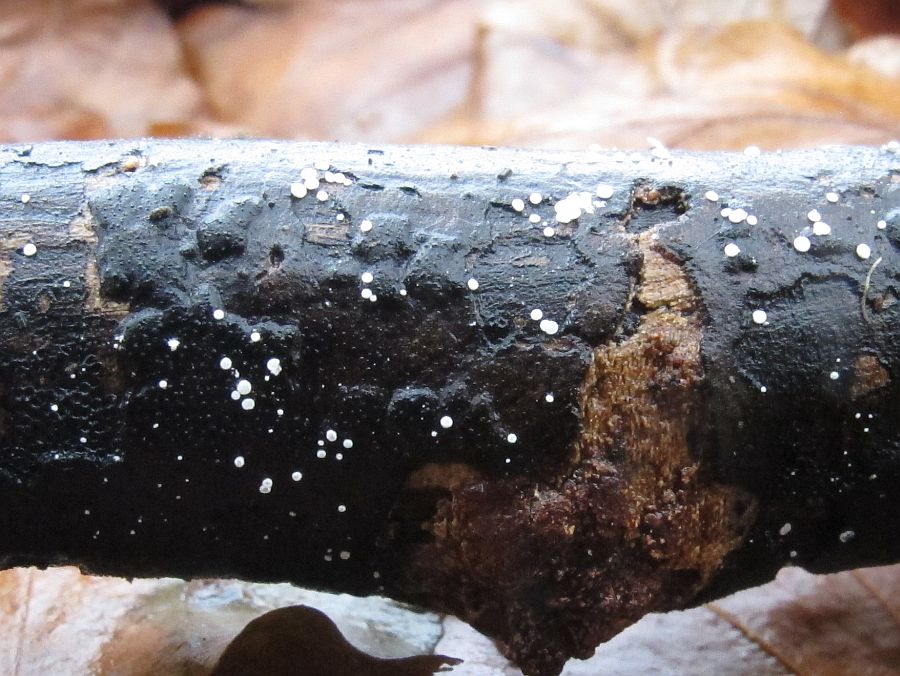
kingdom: Fungi
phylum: Ascomycota
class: Leotiomycetes
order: Helotiales
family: Hyaloscyphaceae
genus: Polydesmia
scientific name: Polydesmia pruinosa
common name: dunskive
